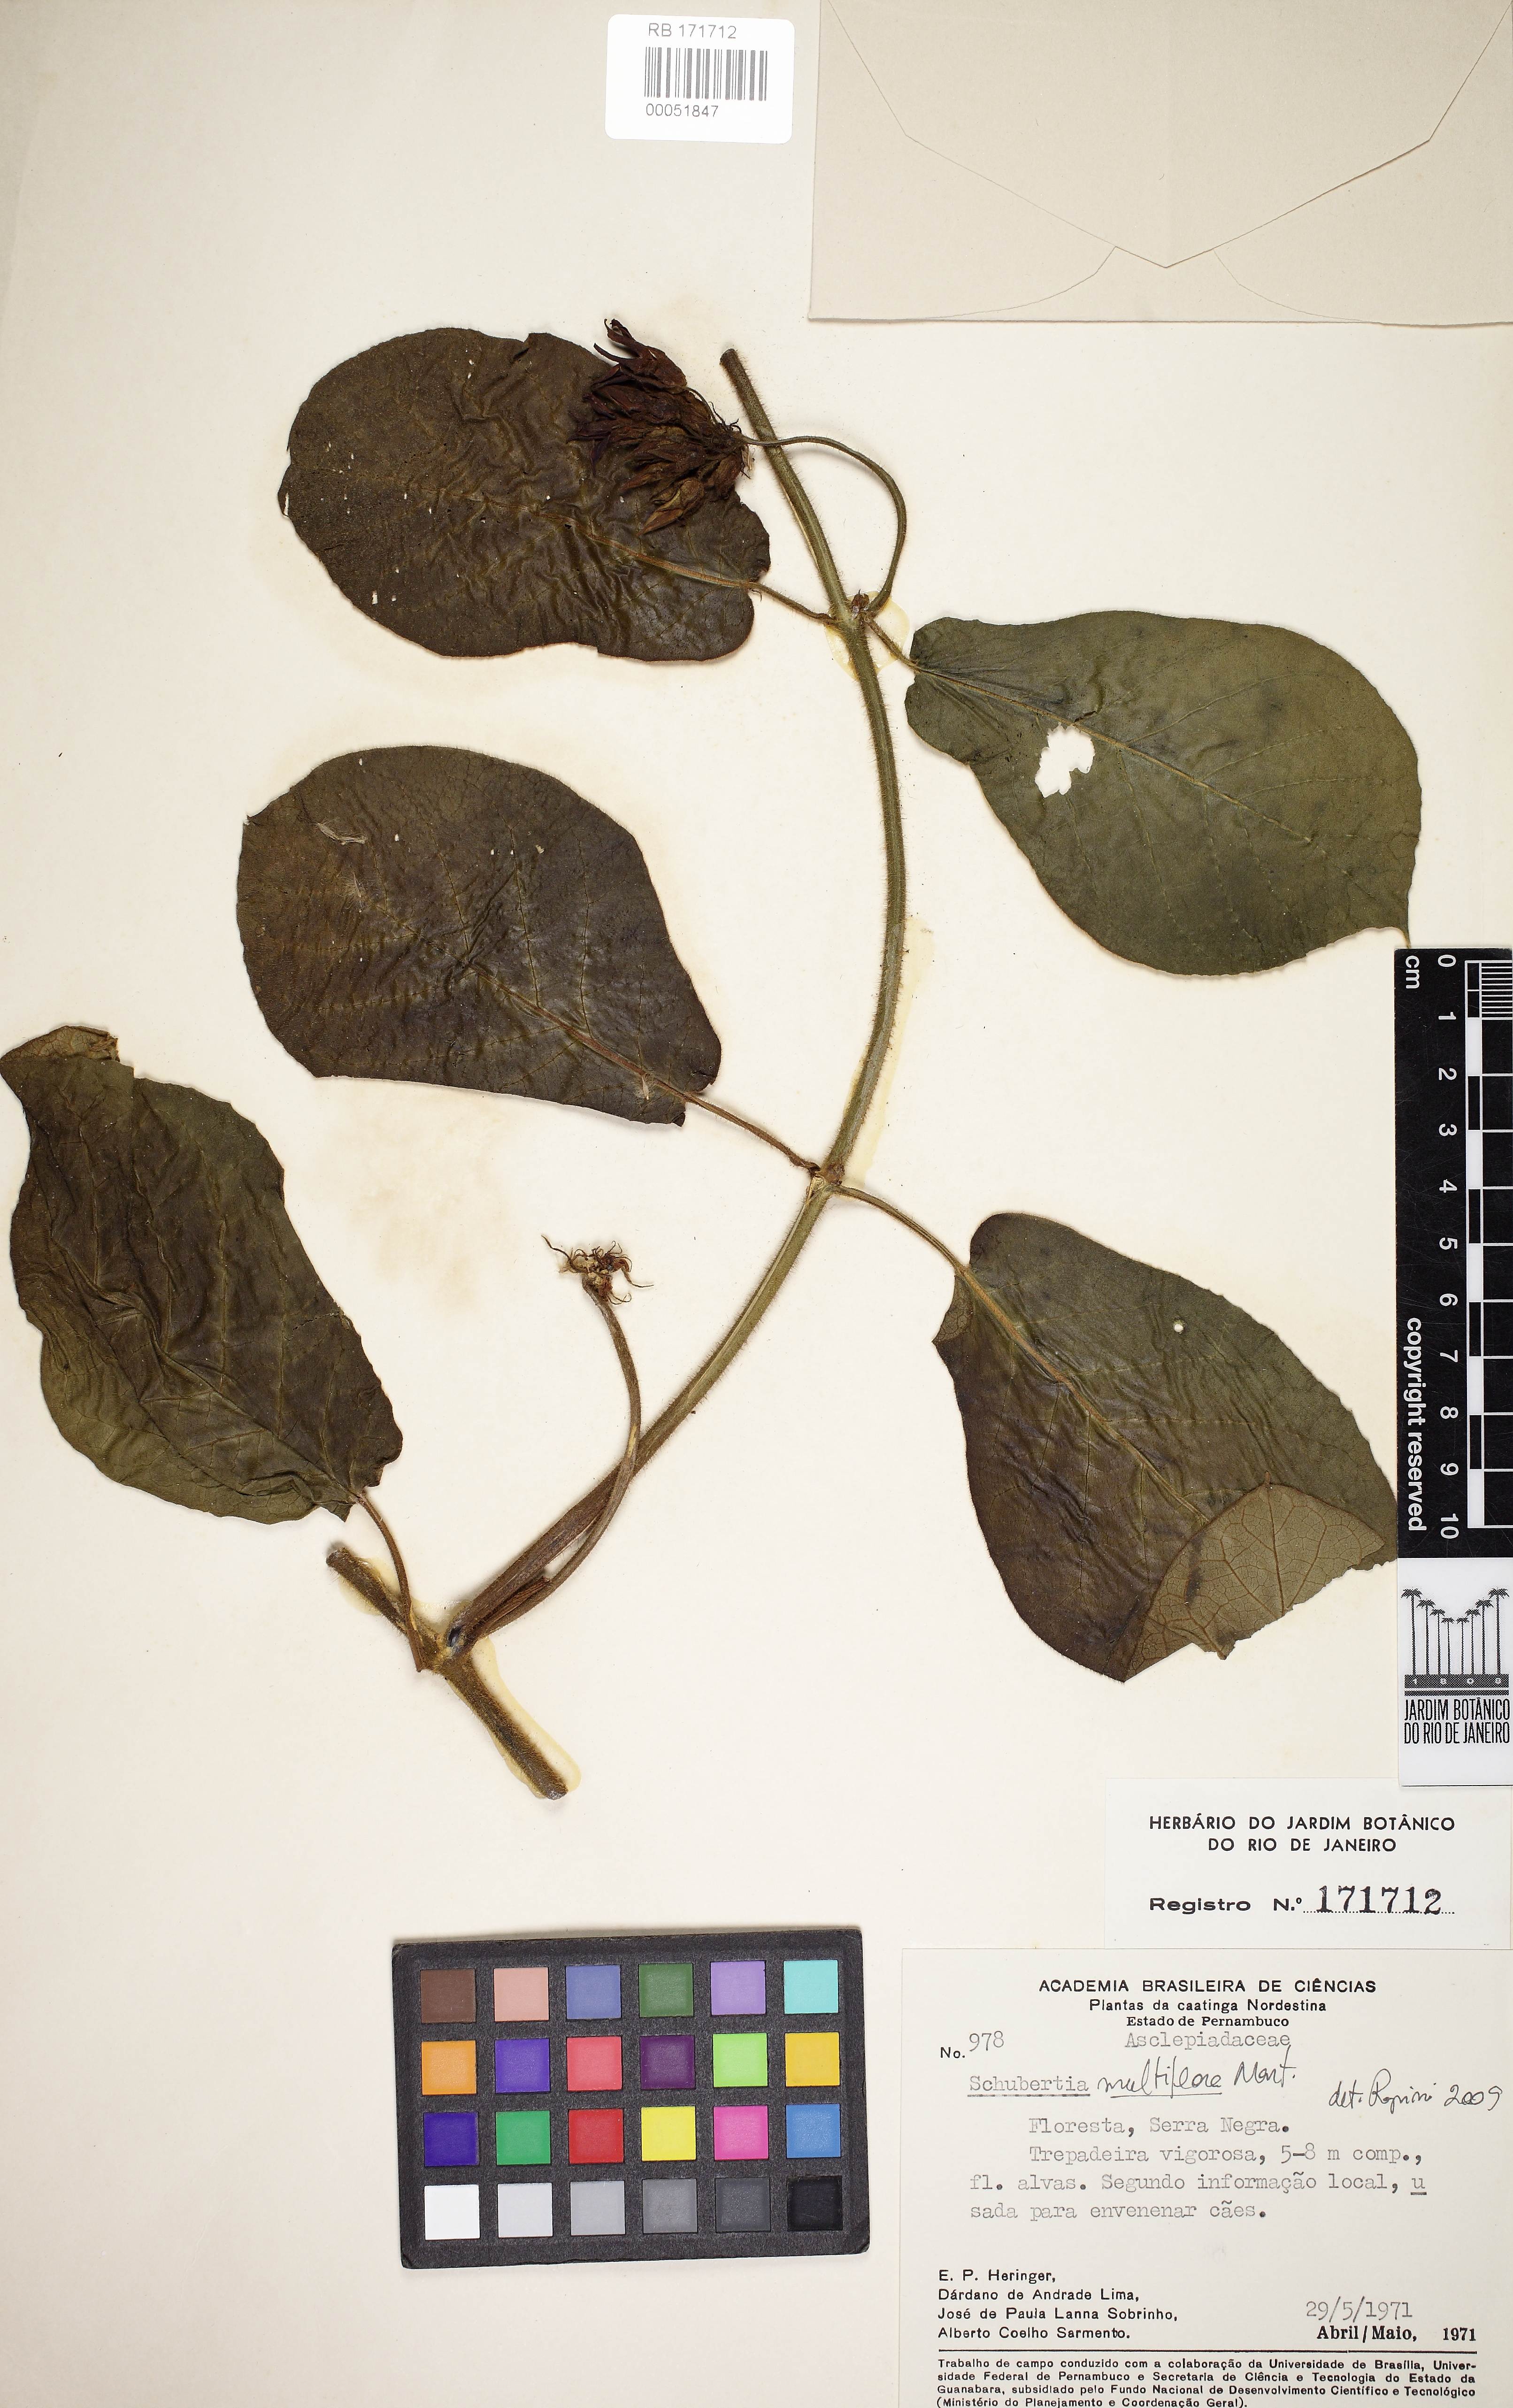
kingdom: Plantae
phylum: Tracheophyta
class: Magnoliopsida
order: Gentianales
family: Apocynaceae
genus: Schubertia
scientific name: Schubertia multiflora
